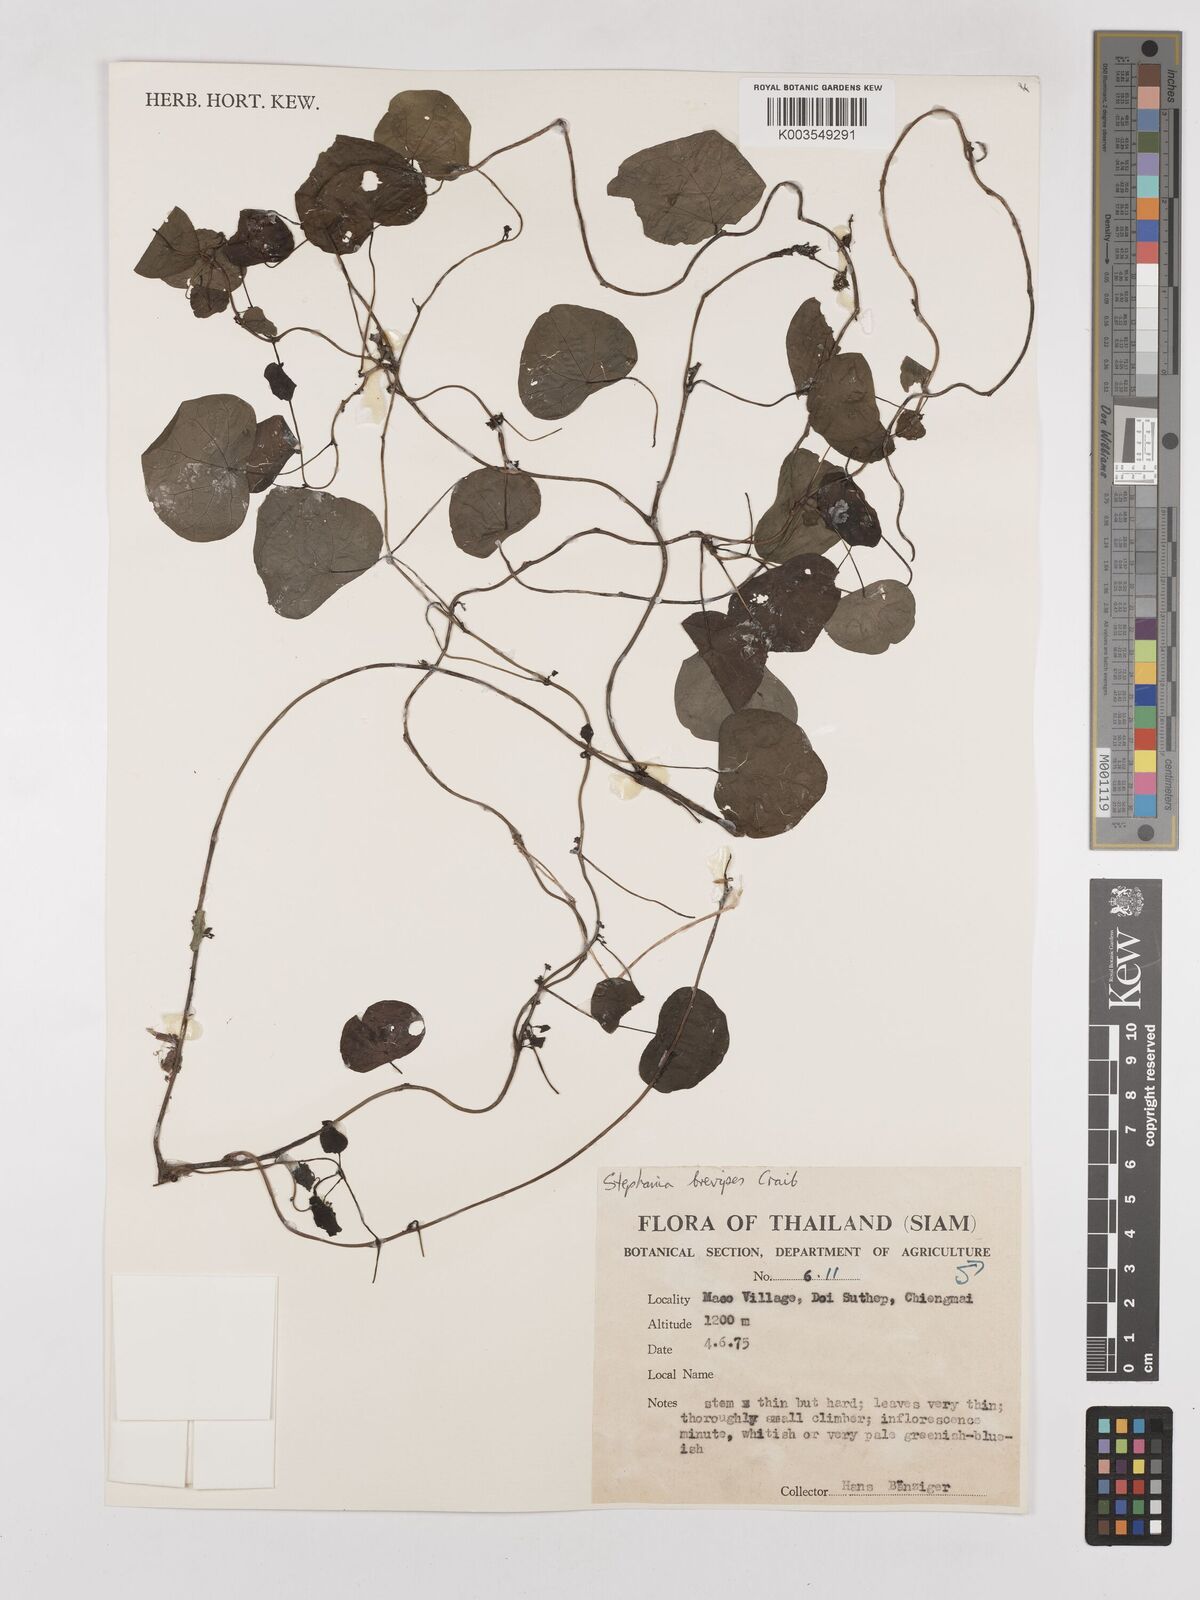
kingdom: Plantae
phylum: Tracheophyta
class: Magnoliopsida
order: Ranunculales
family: Menispermaceae
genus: Stephania
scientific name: Stephania brevipes
